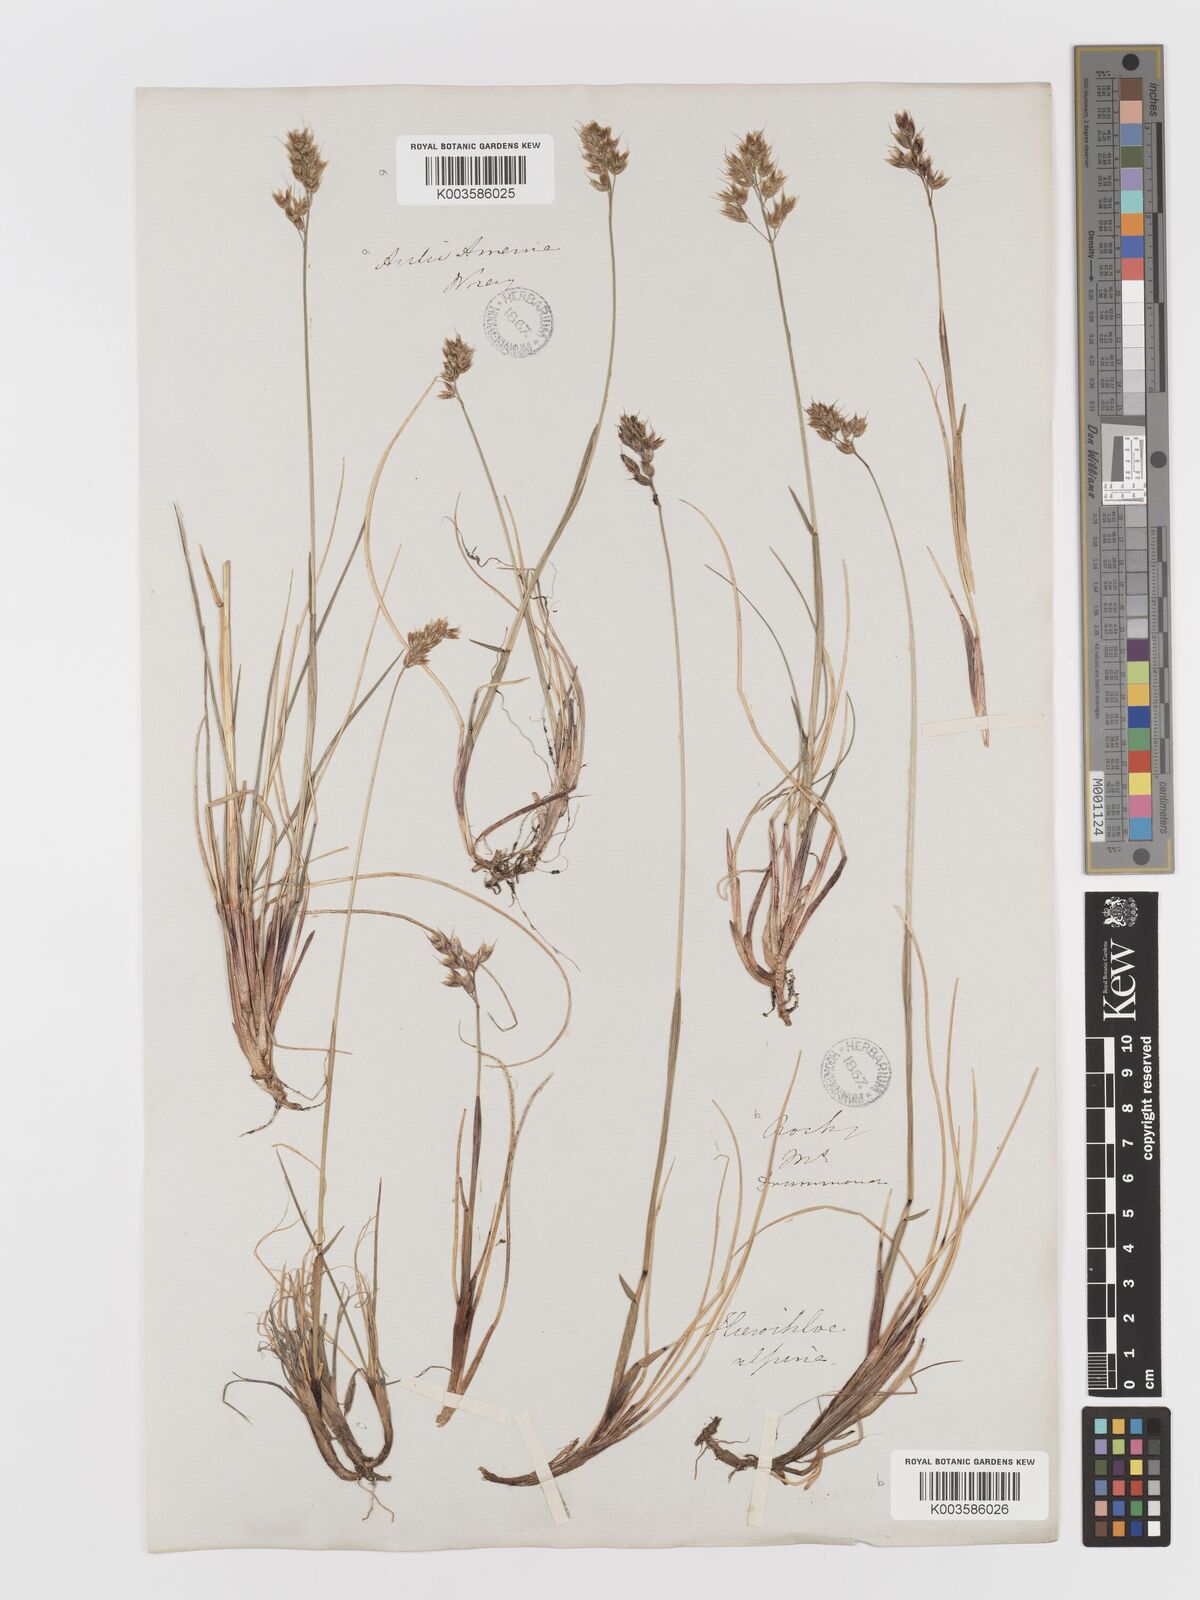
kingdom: Plantae
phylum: Tracheophyta
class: Liliopsida
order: Poales
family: Poaceae
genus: Anthoxanthum
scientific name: Anthoxanthum monticola
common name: Alpine sweetgrass
